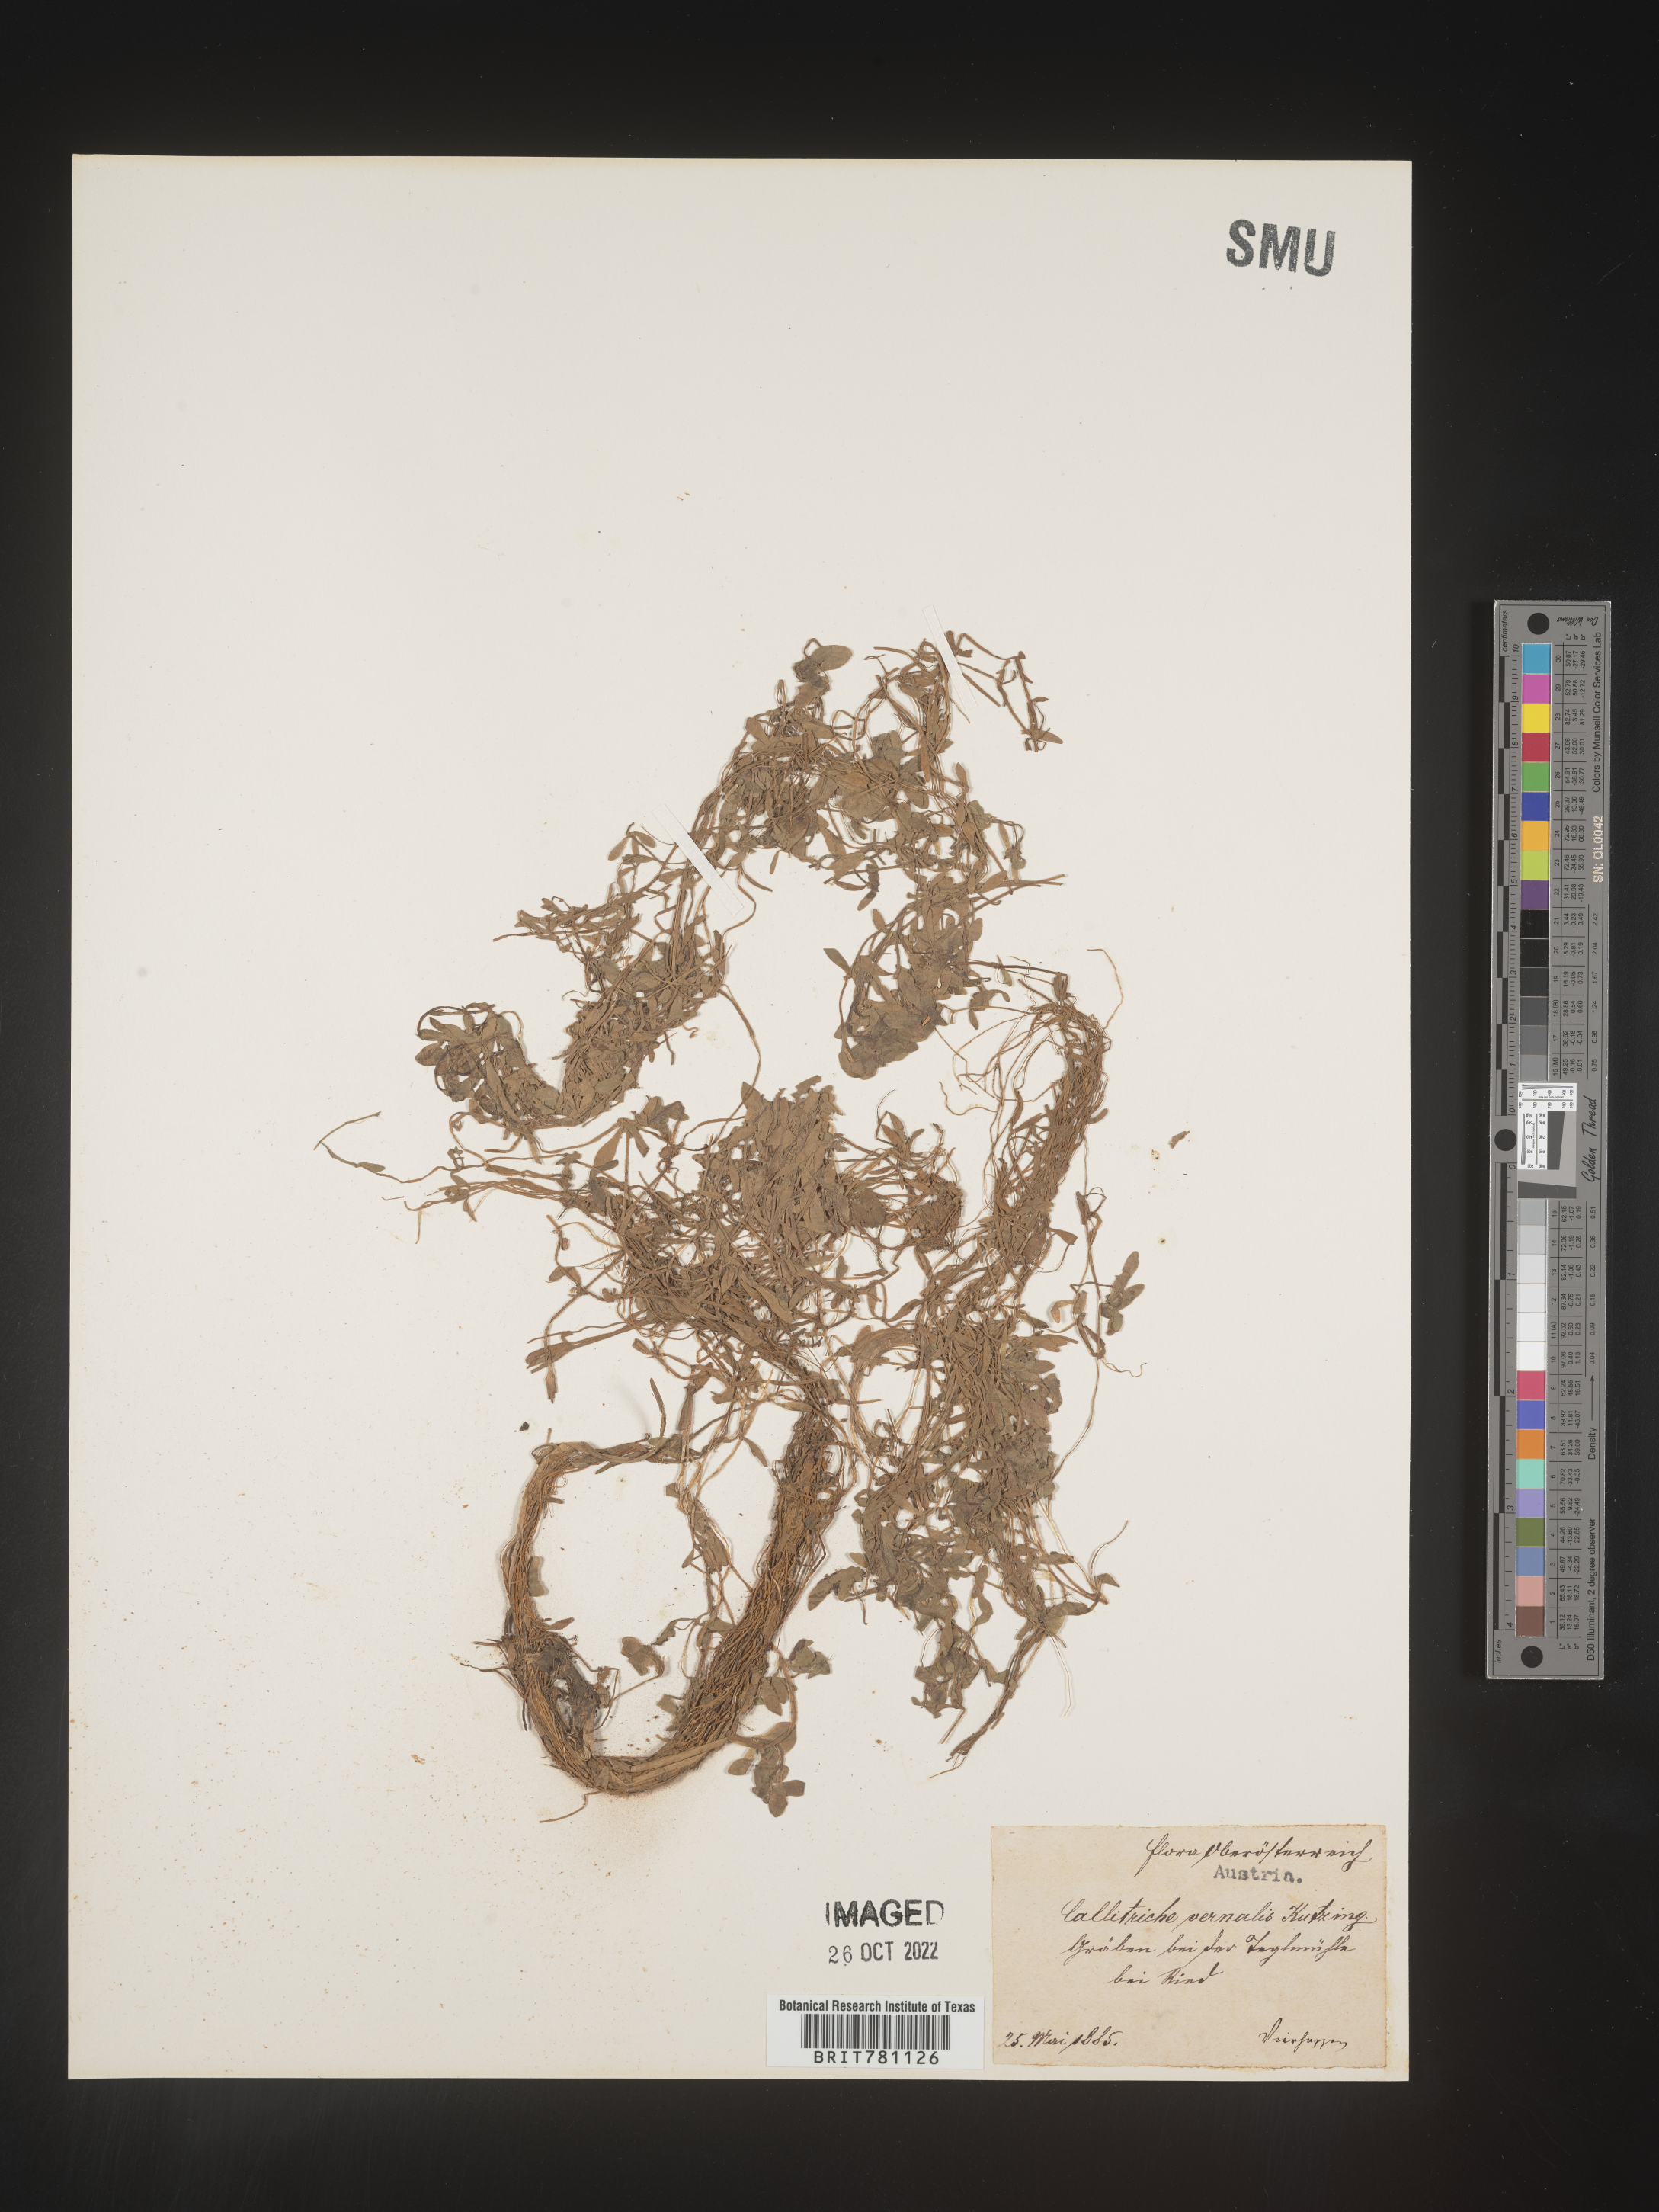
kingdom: Plantae
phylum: Tracheophyta
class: Magnoliopsida
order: Lamiales
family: Plantaginaceae
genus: Callitriche
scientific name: Callitriche
